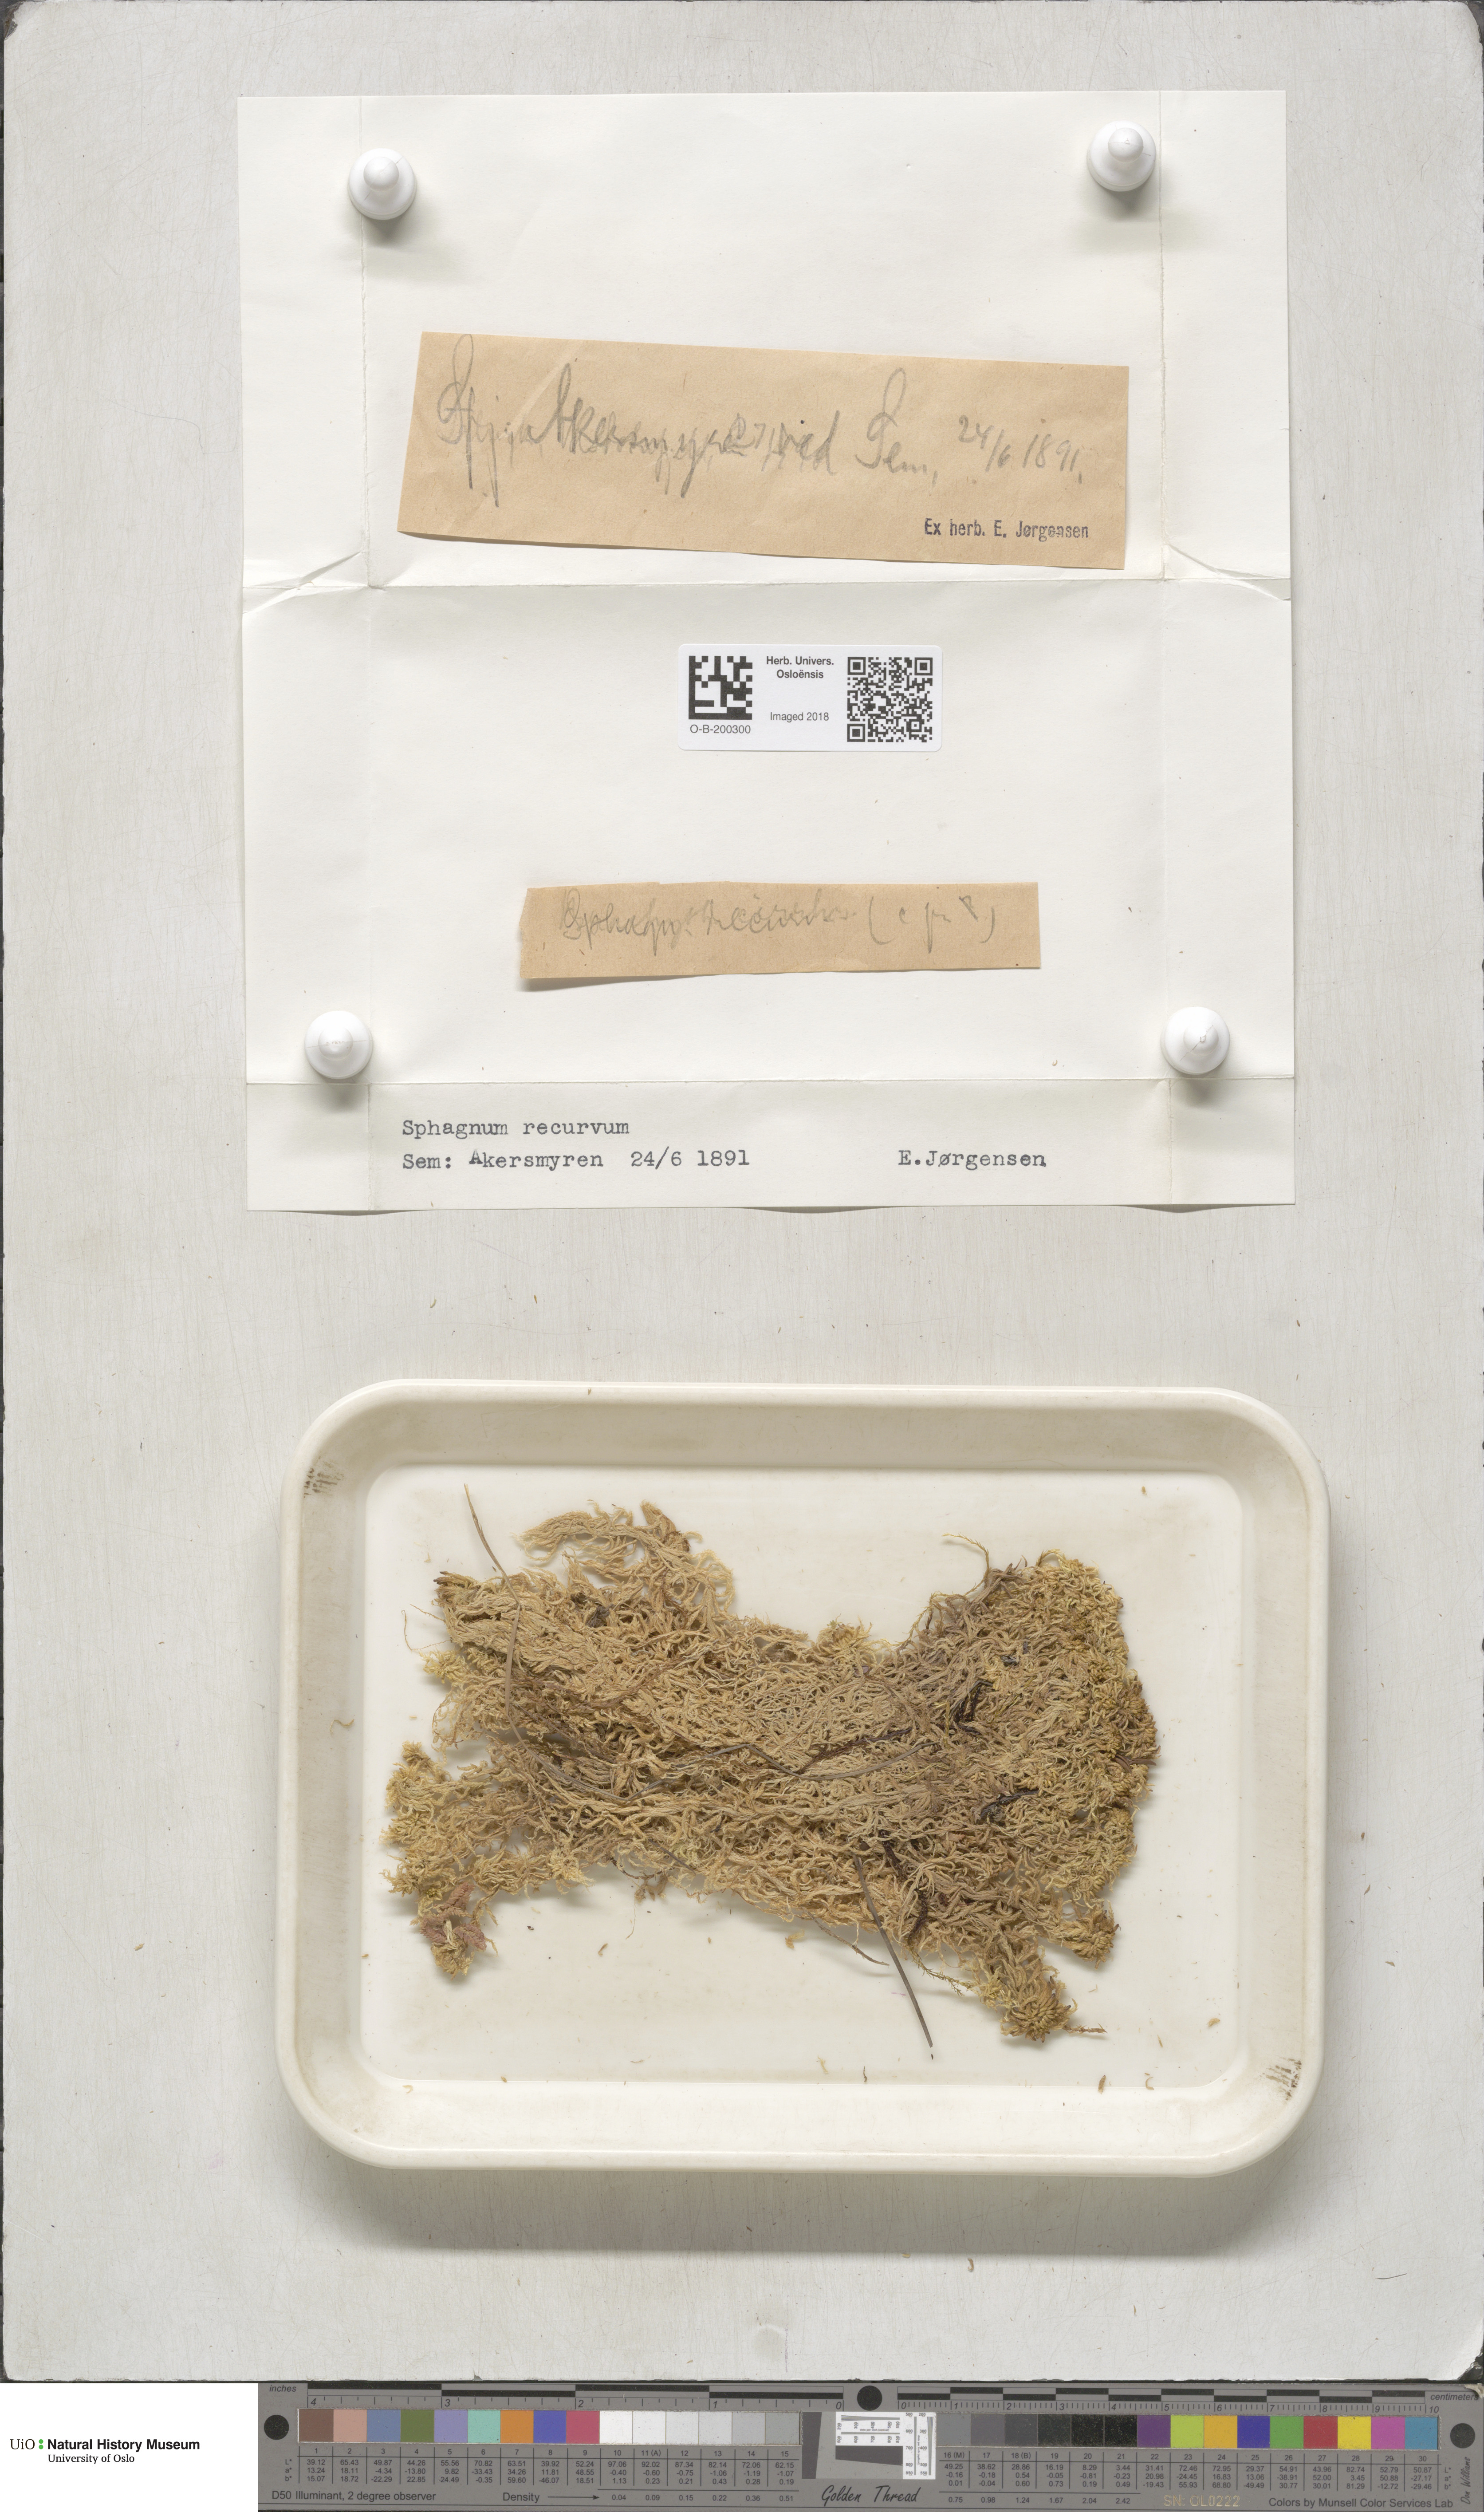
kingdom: Plantae
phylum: Bryophyta
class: Sphagnopsida
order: Sphagnales
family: Sphagnaceae
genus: Sphagnum
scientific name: Sphagnum fallax
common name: Flat-top peat moss
